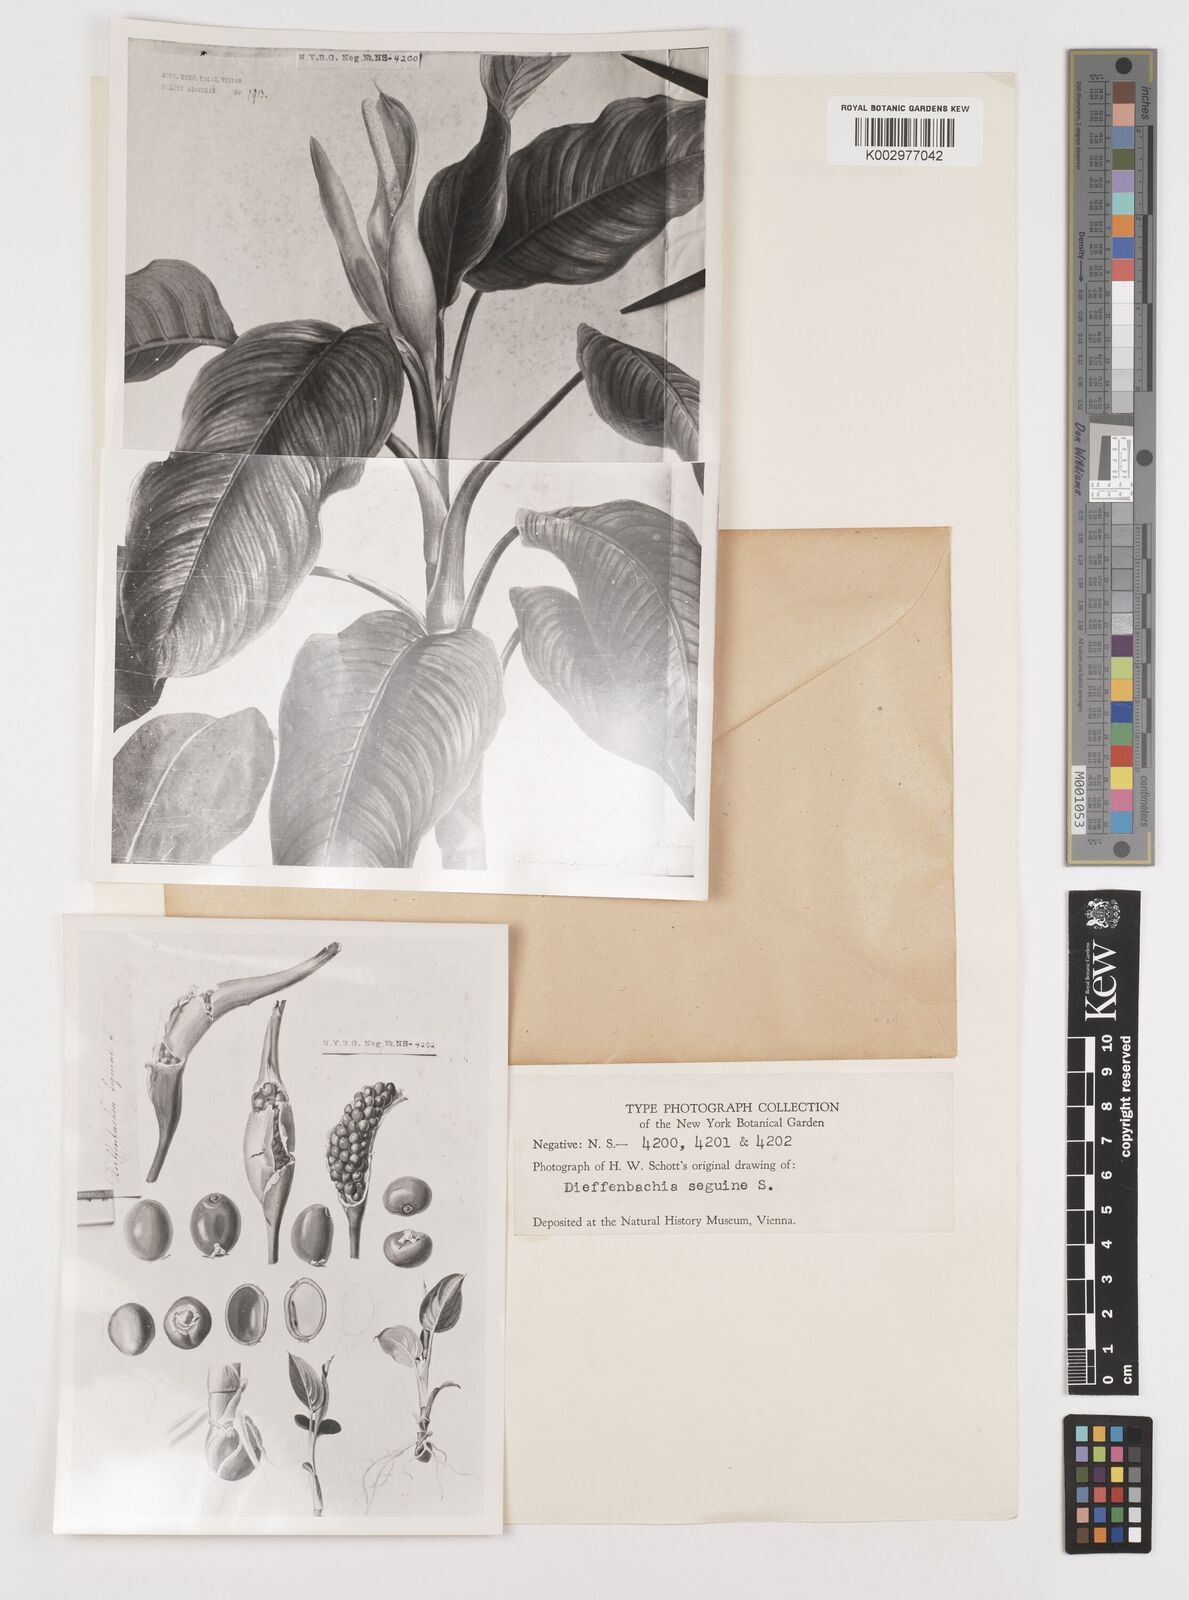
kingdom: Plantae
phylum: Tracheophyta
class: Liliopsida
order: Alismatales
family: Araceae
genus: Dieffenbachia
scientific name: Dieffenbachia seguine
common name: Dumbcane
